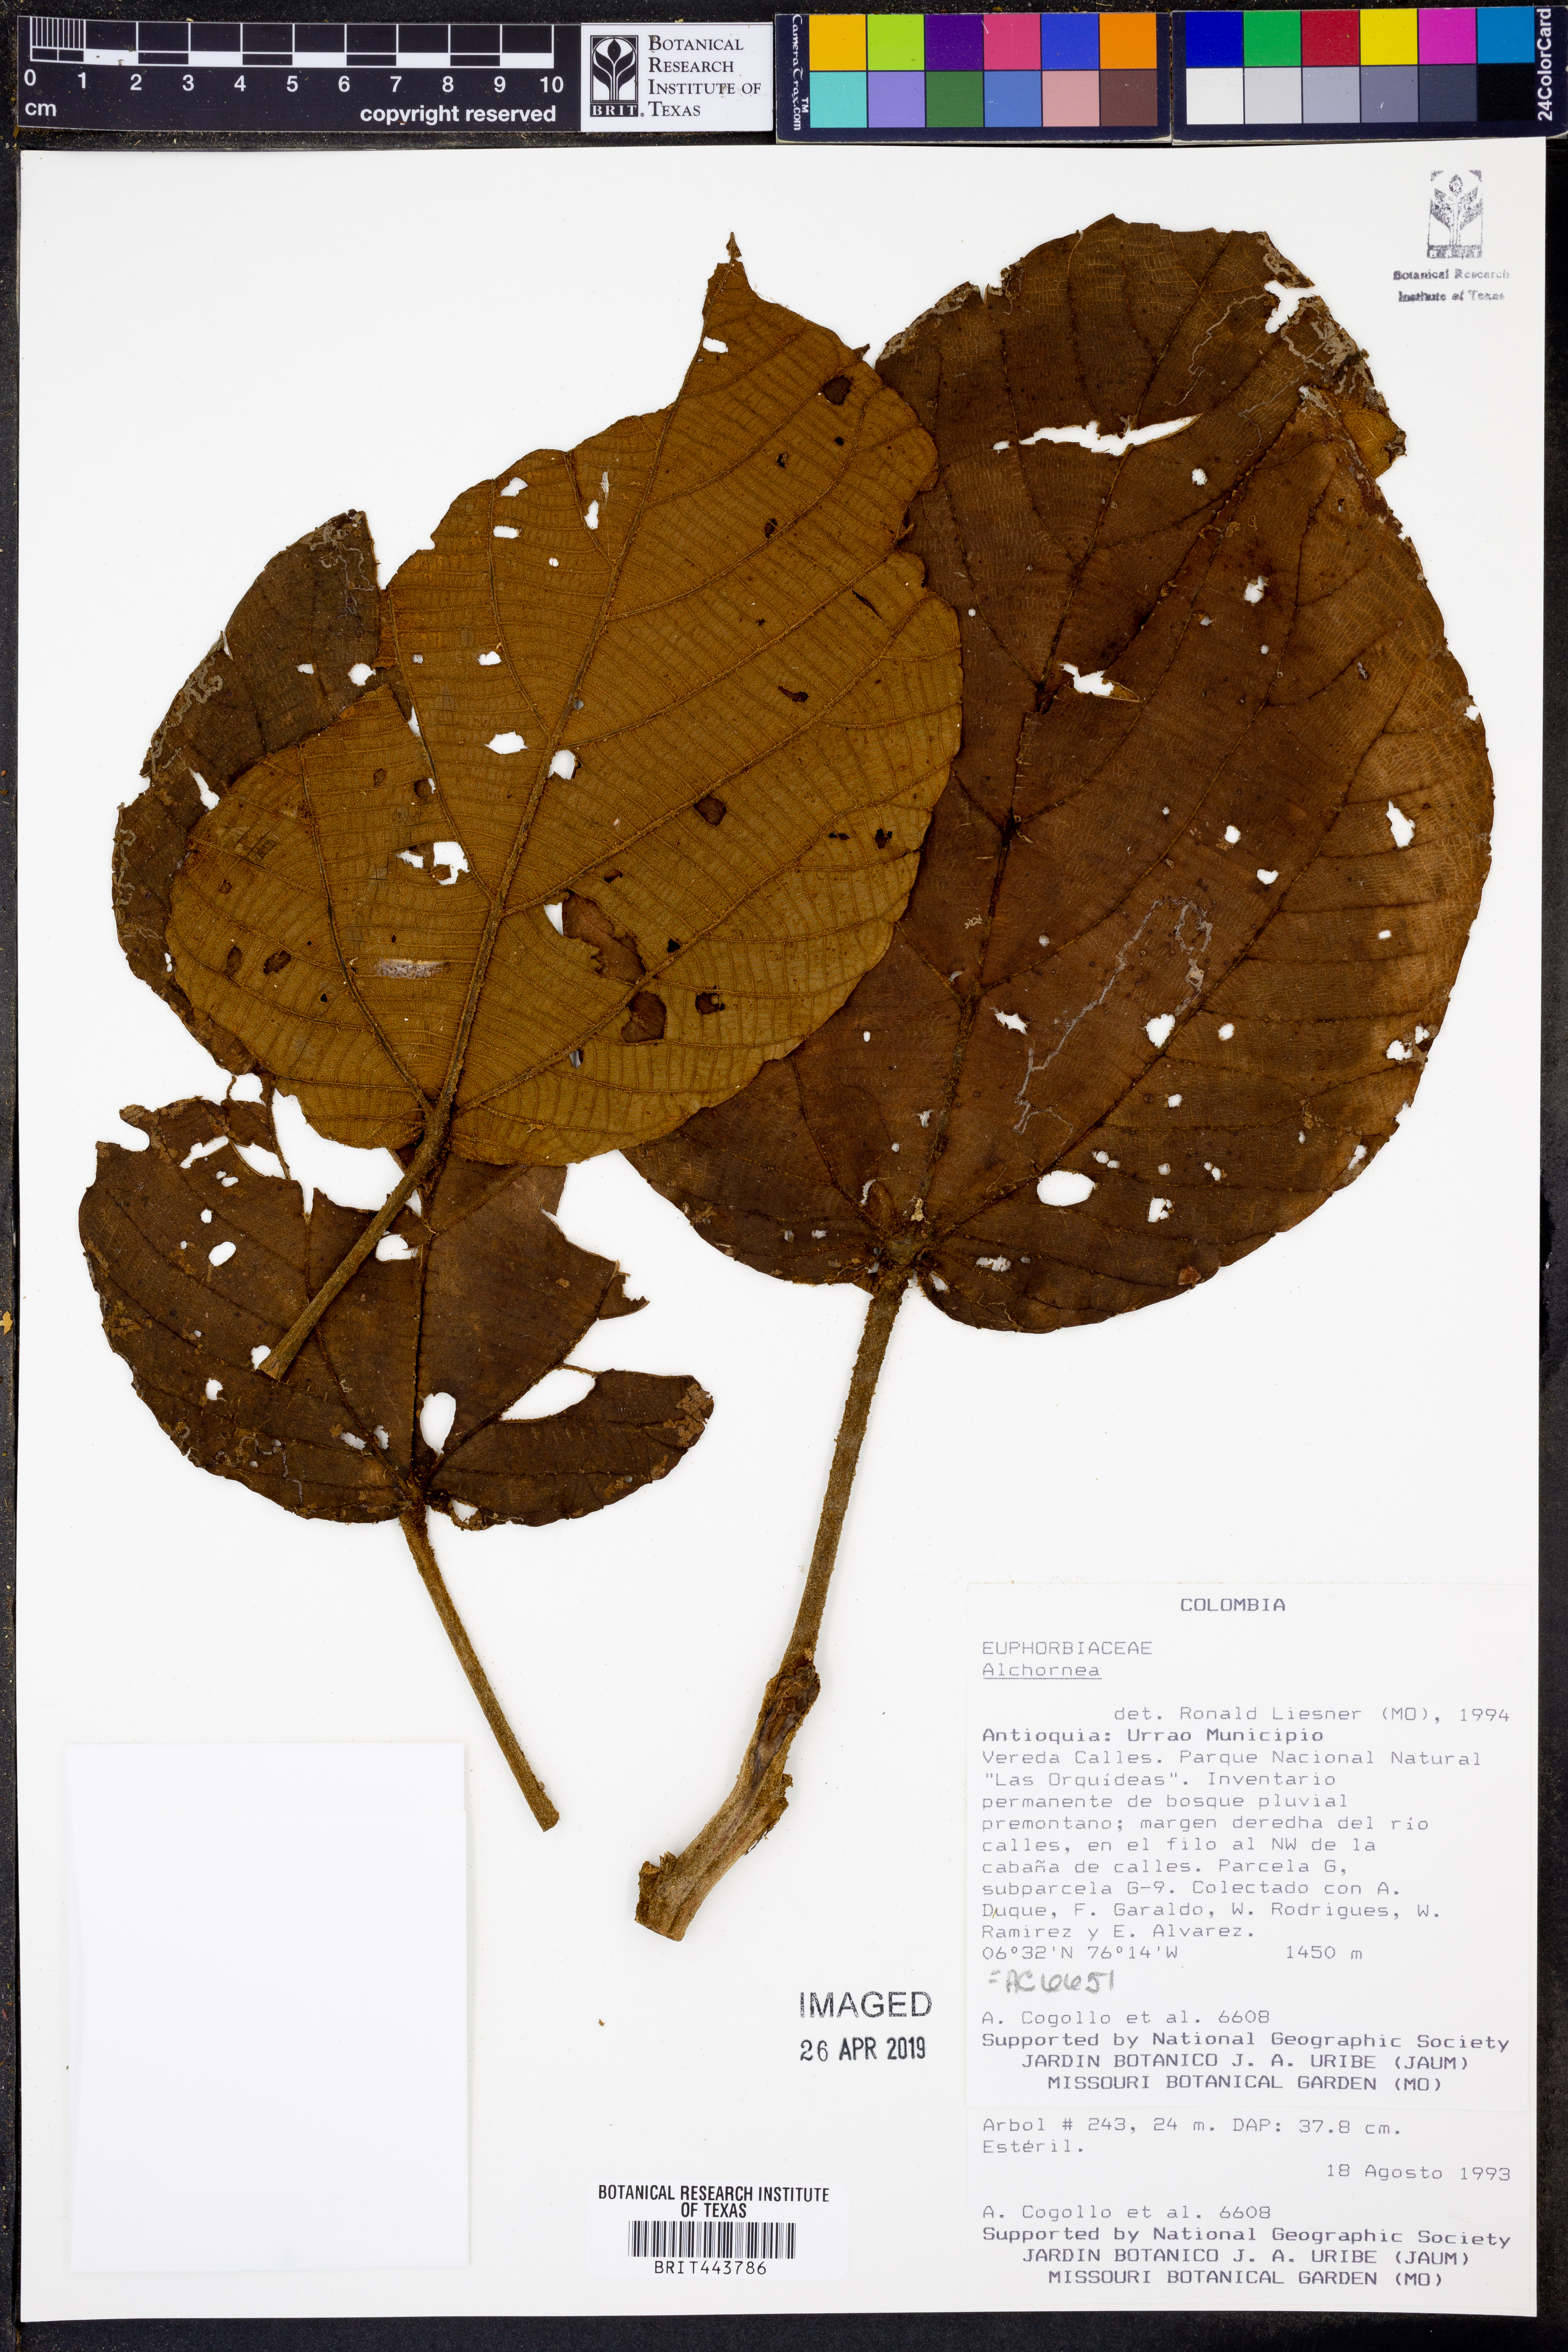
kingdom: Plantae
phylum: Tracheophyta
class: Magnoliopsida
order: Malpighiales
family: Euphorbiaceae
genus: Alchornea
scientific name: Alchornea
